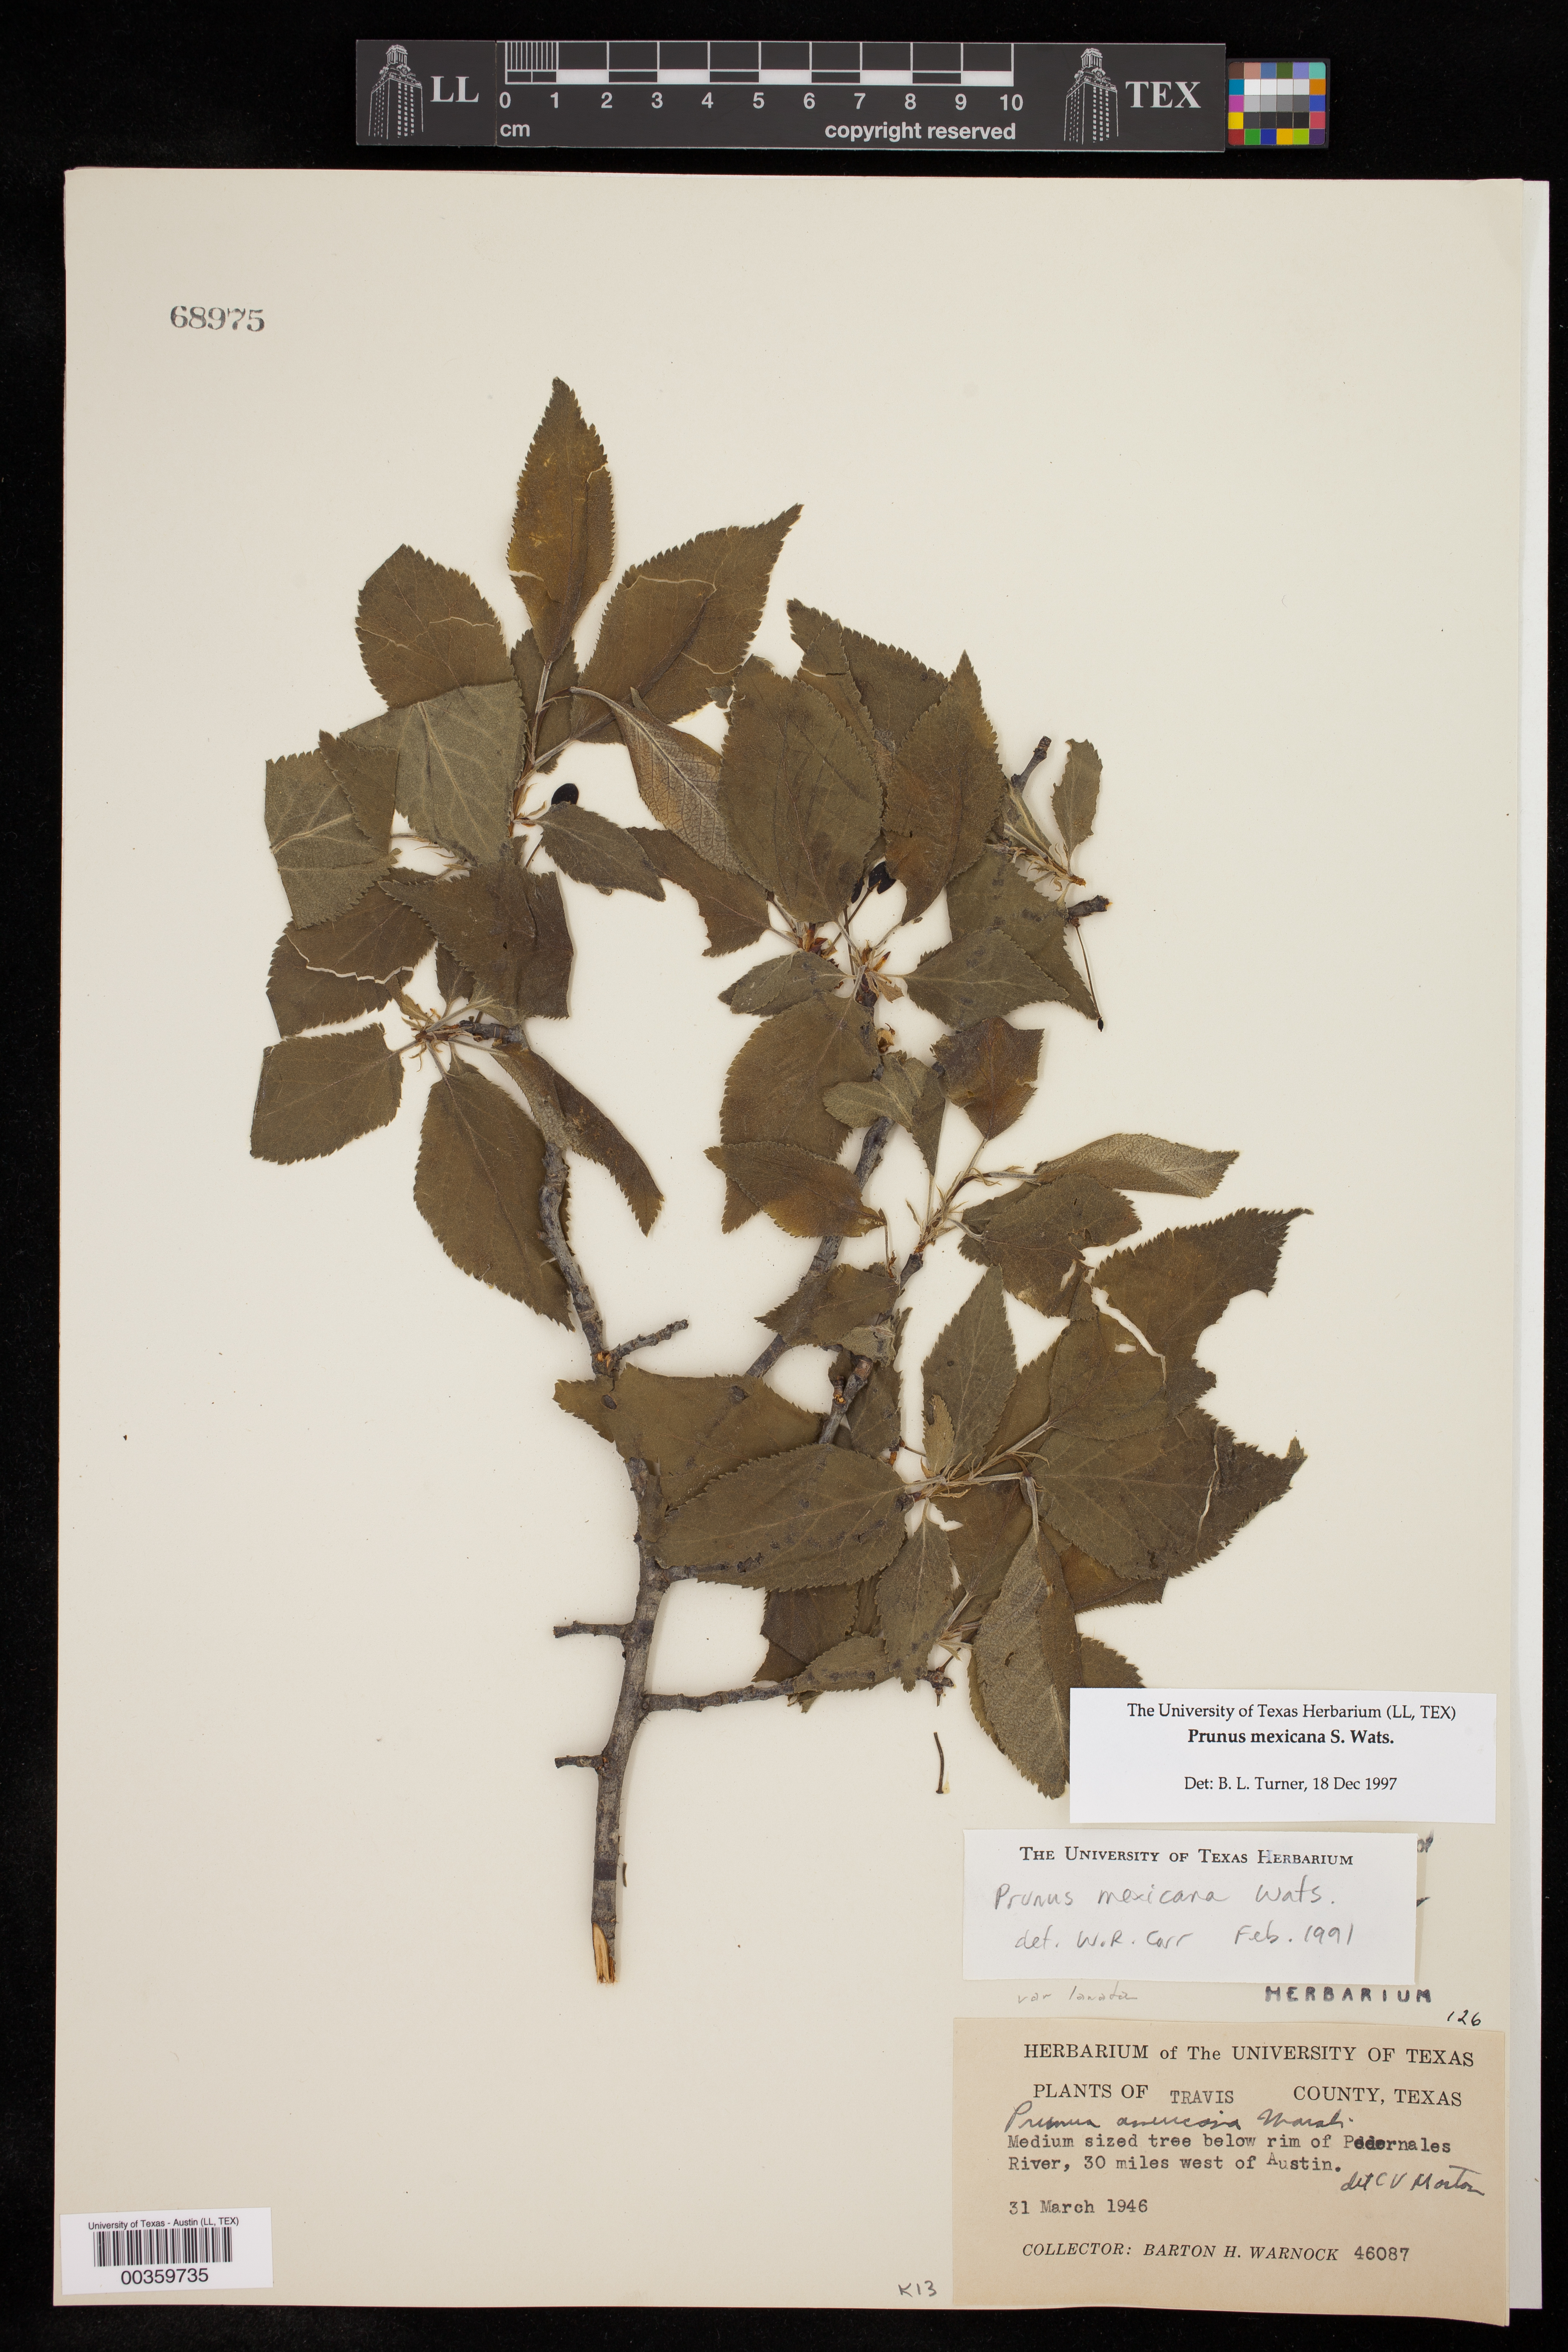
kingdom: Plantae
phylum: Tracheophyta
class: Magnoliopsida
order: Rosales
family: Rosaceae
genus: Prunus
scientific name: Prunus mexicana
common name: Mexican plum
